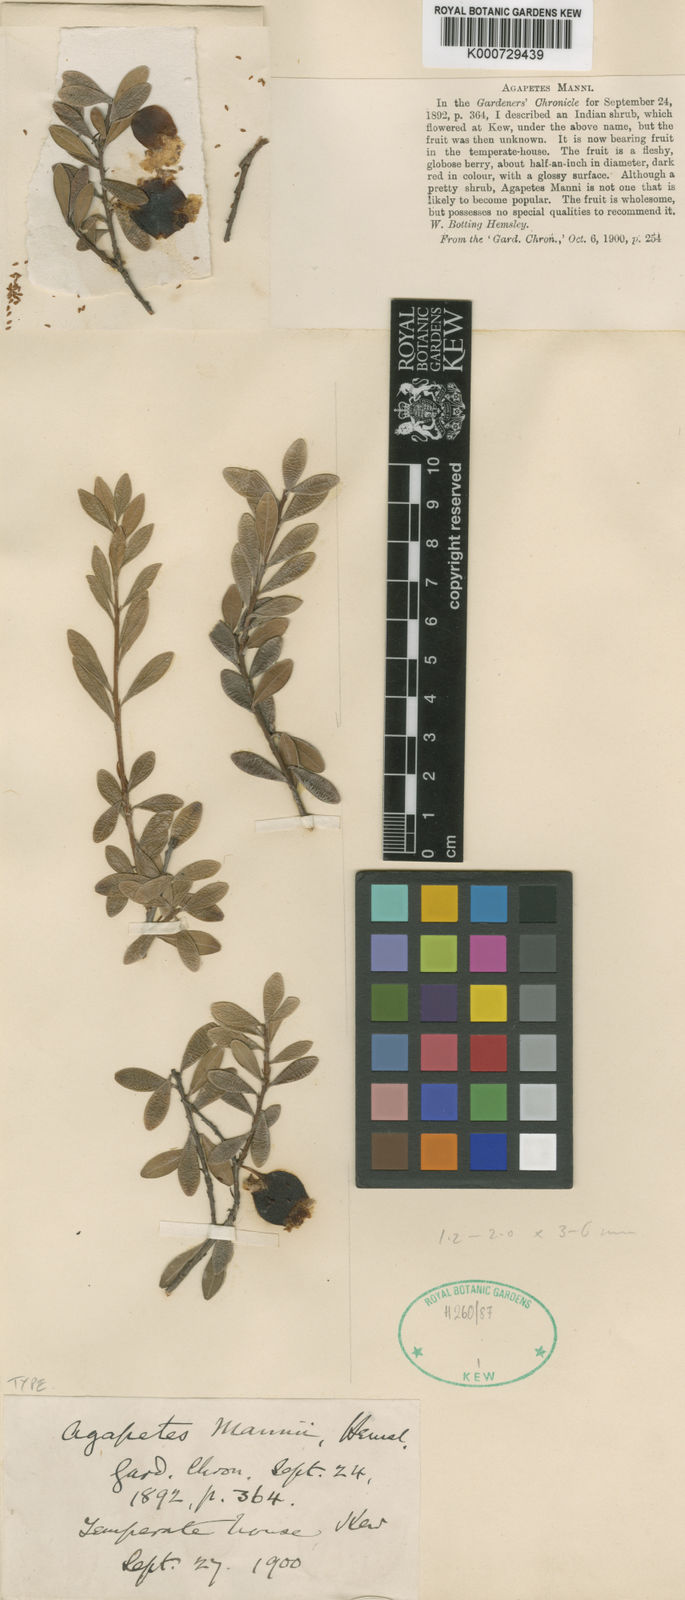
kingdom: Plantae
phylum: Tracheophyta
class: Magnoliopsida
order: Ericales
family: Ericaceae
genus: Agapetes
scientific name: Agapetes mannii
